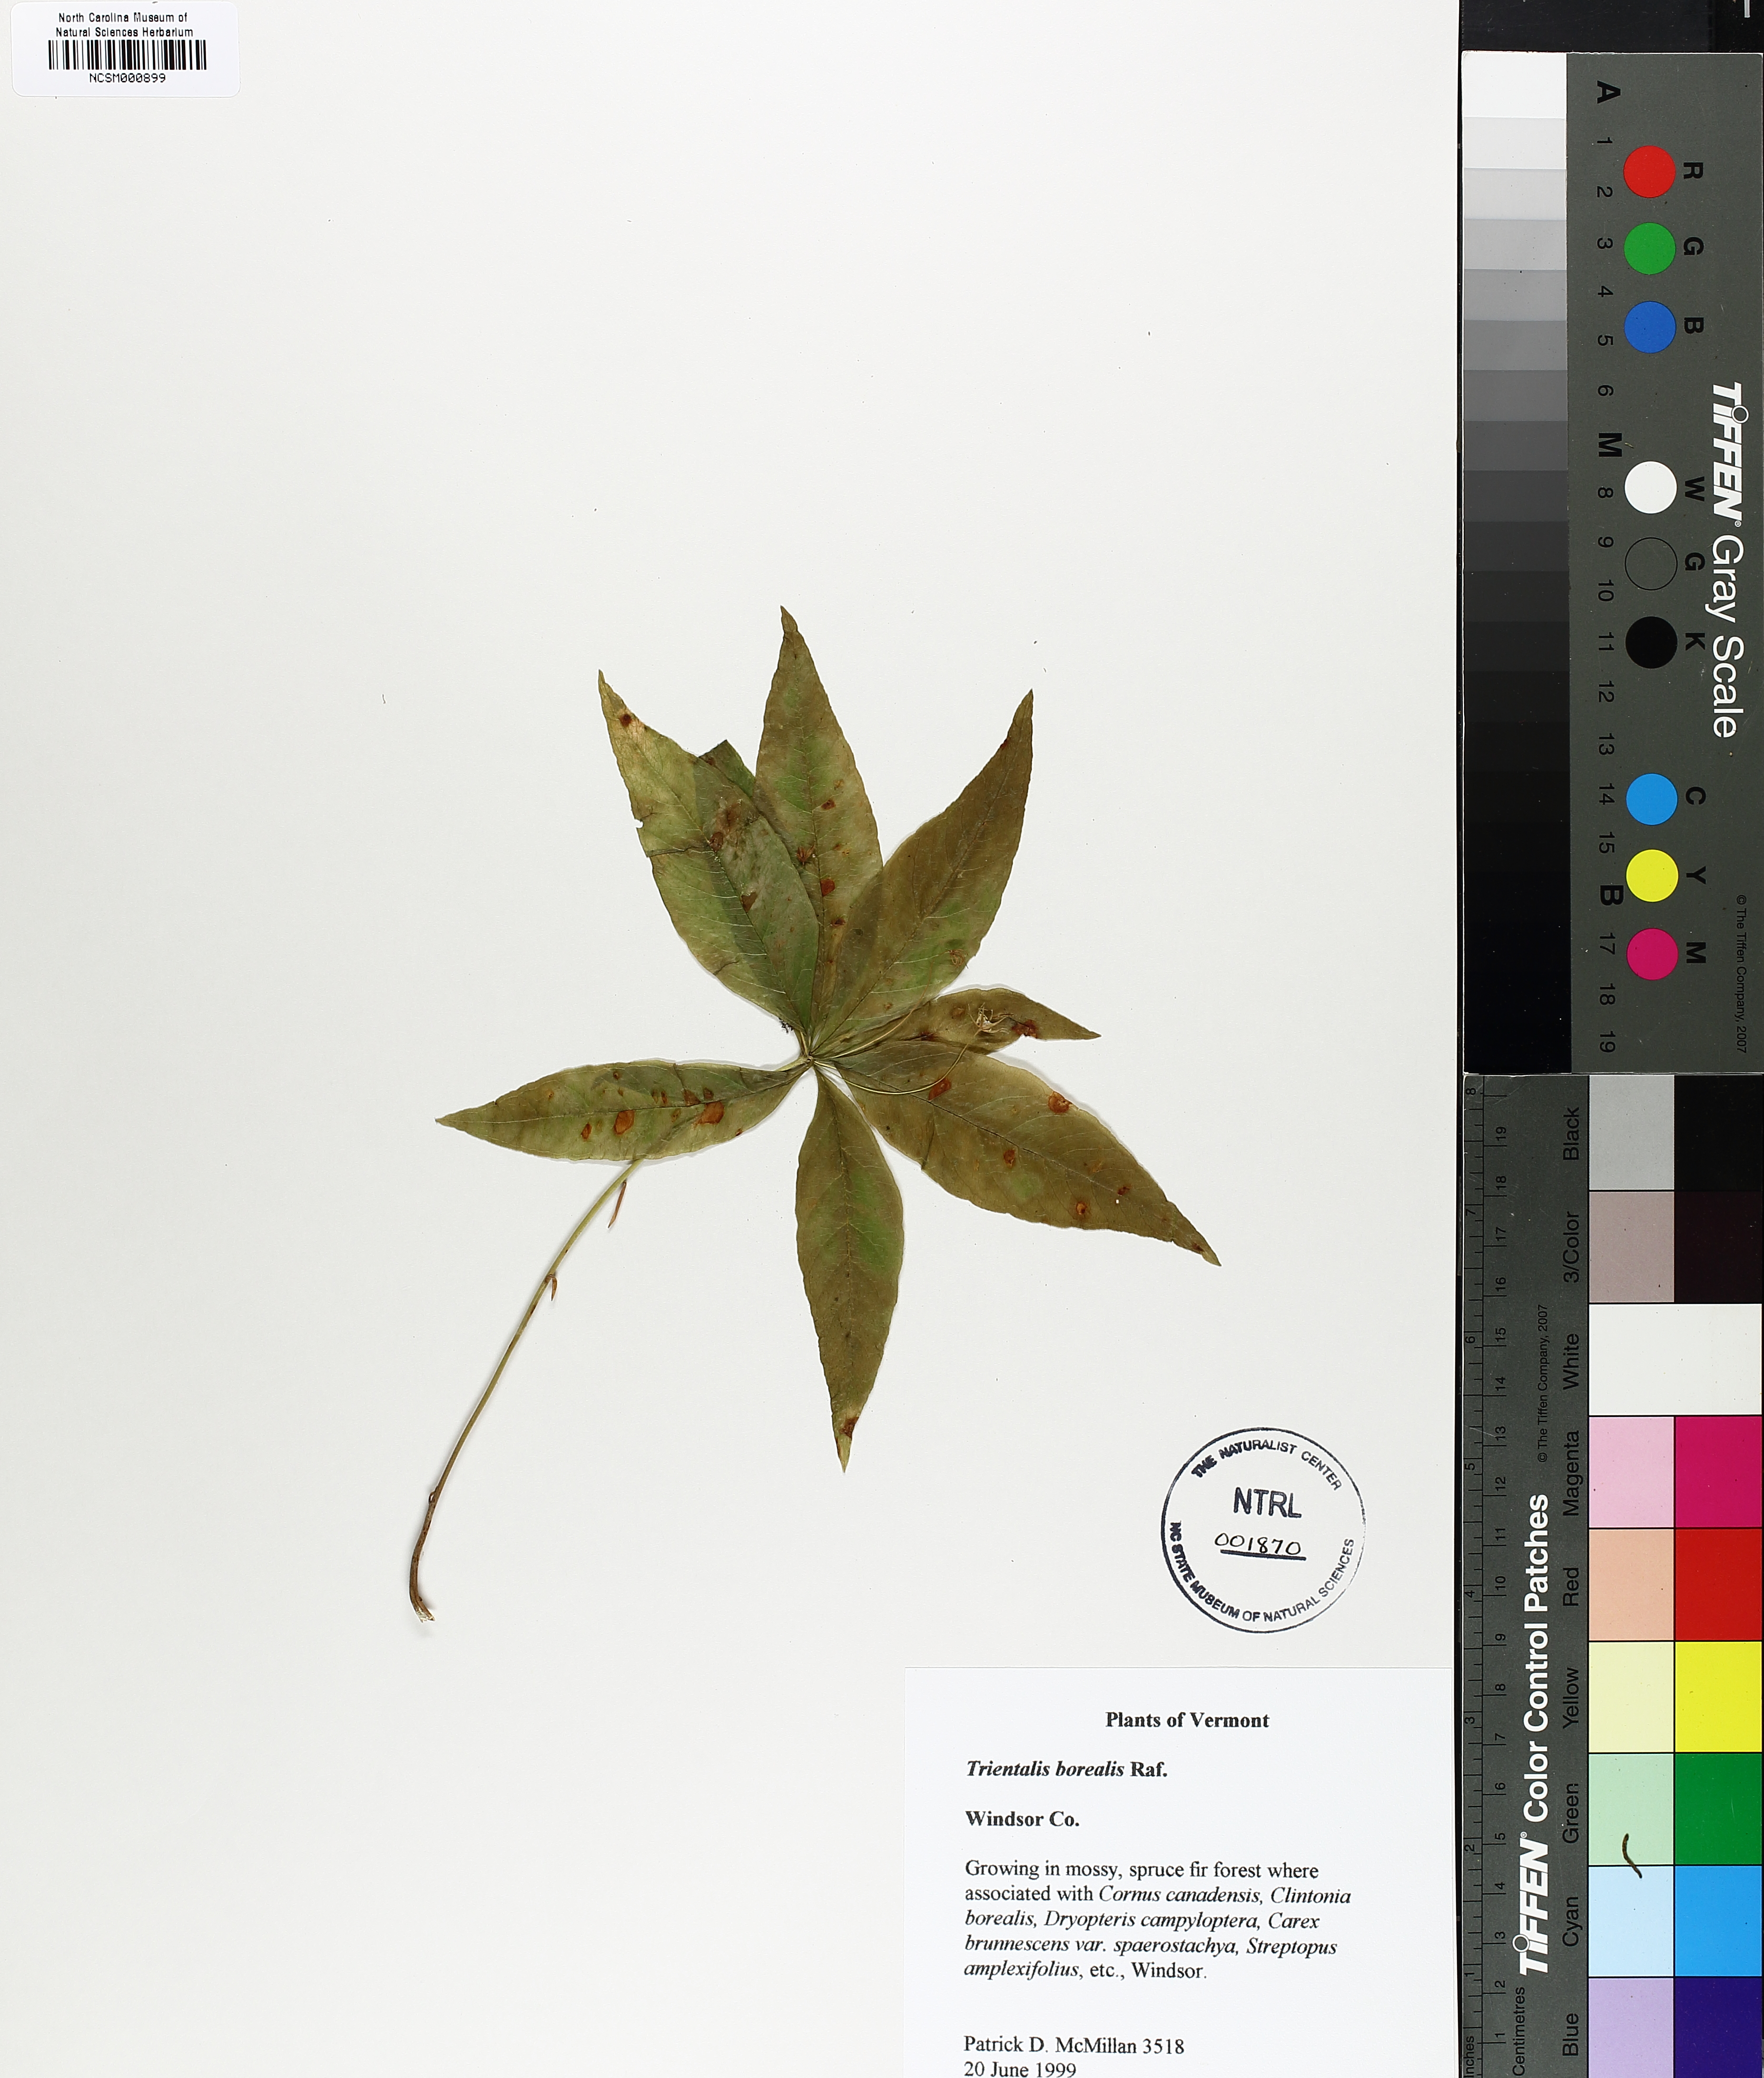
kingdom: Plantae
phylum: Tracheophyta
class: Magnoliopsida
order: Ericales
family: Primulaceae
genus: Lysimachia
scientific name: Lysimachia borealis
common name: American starflower
